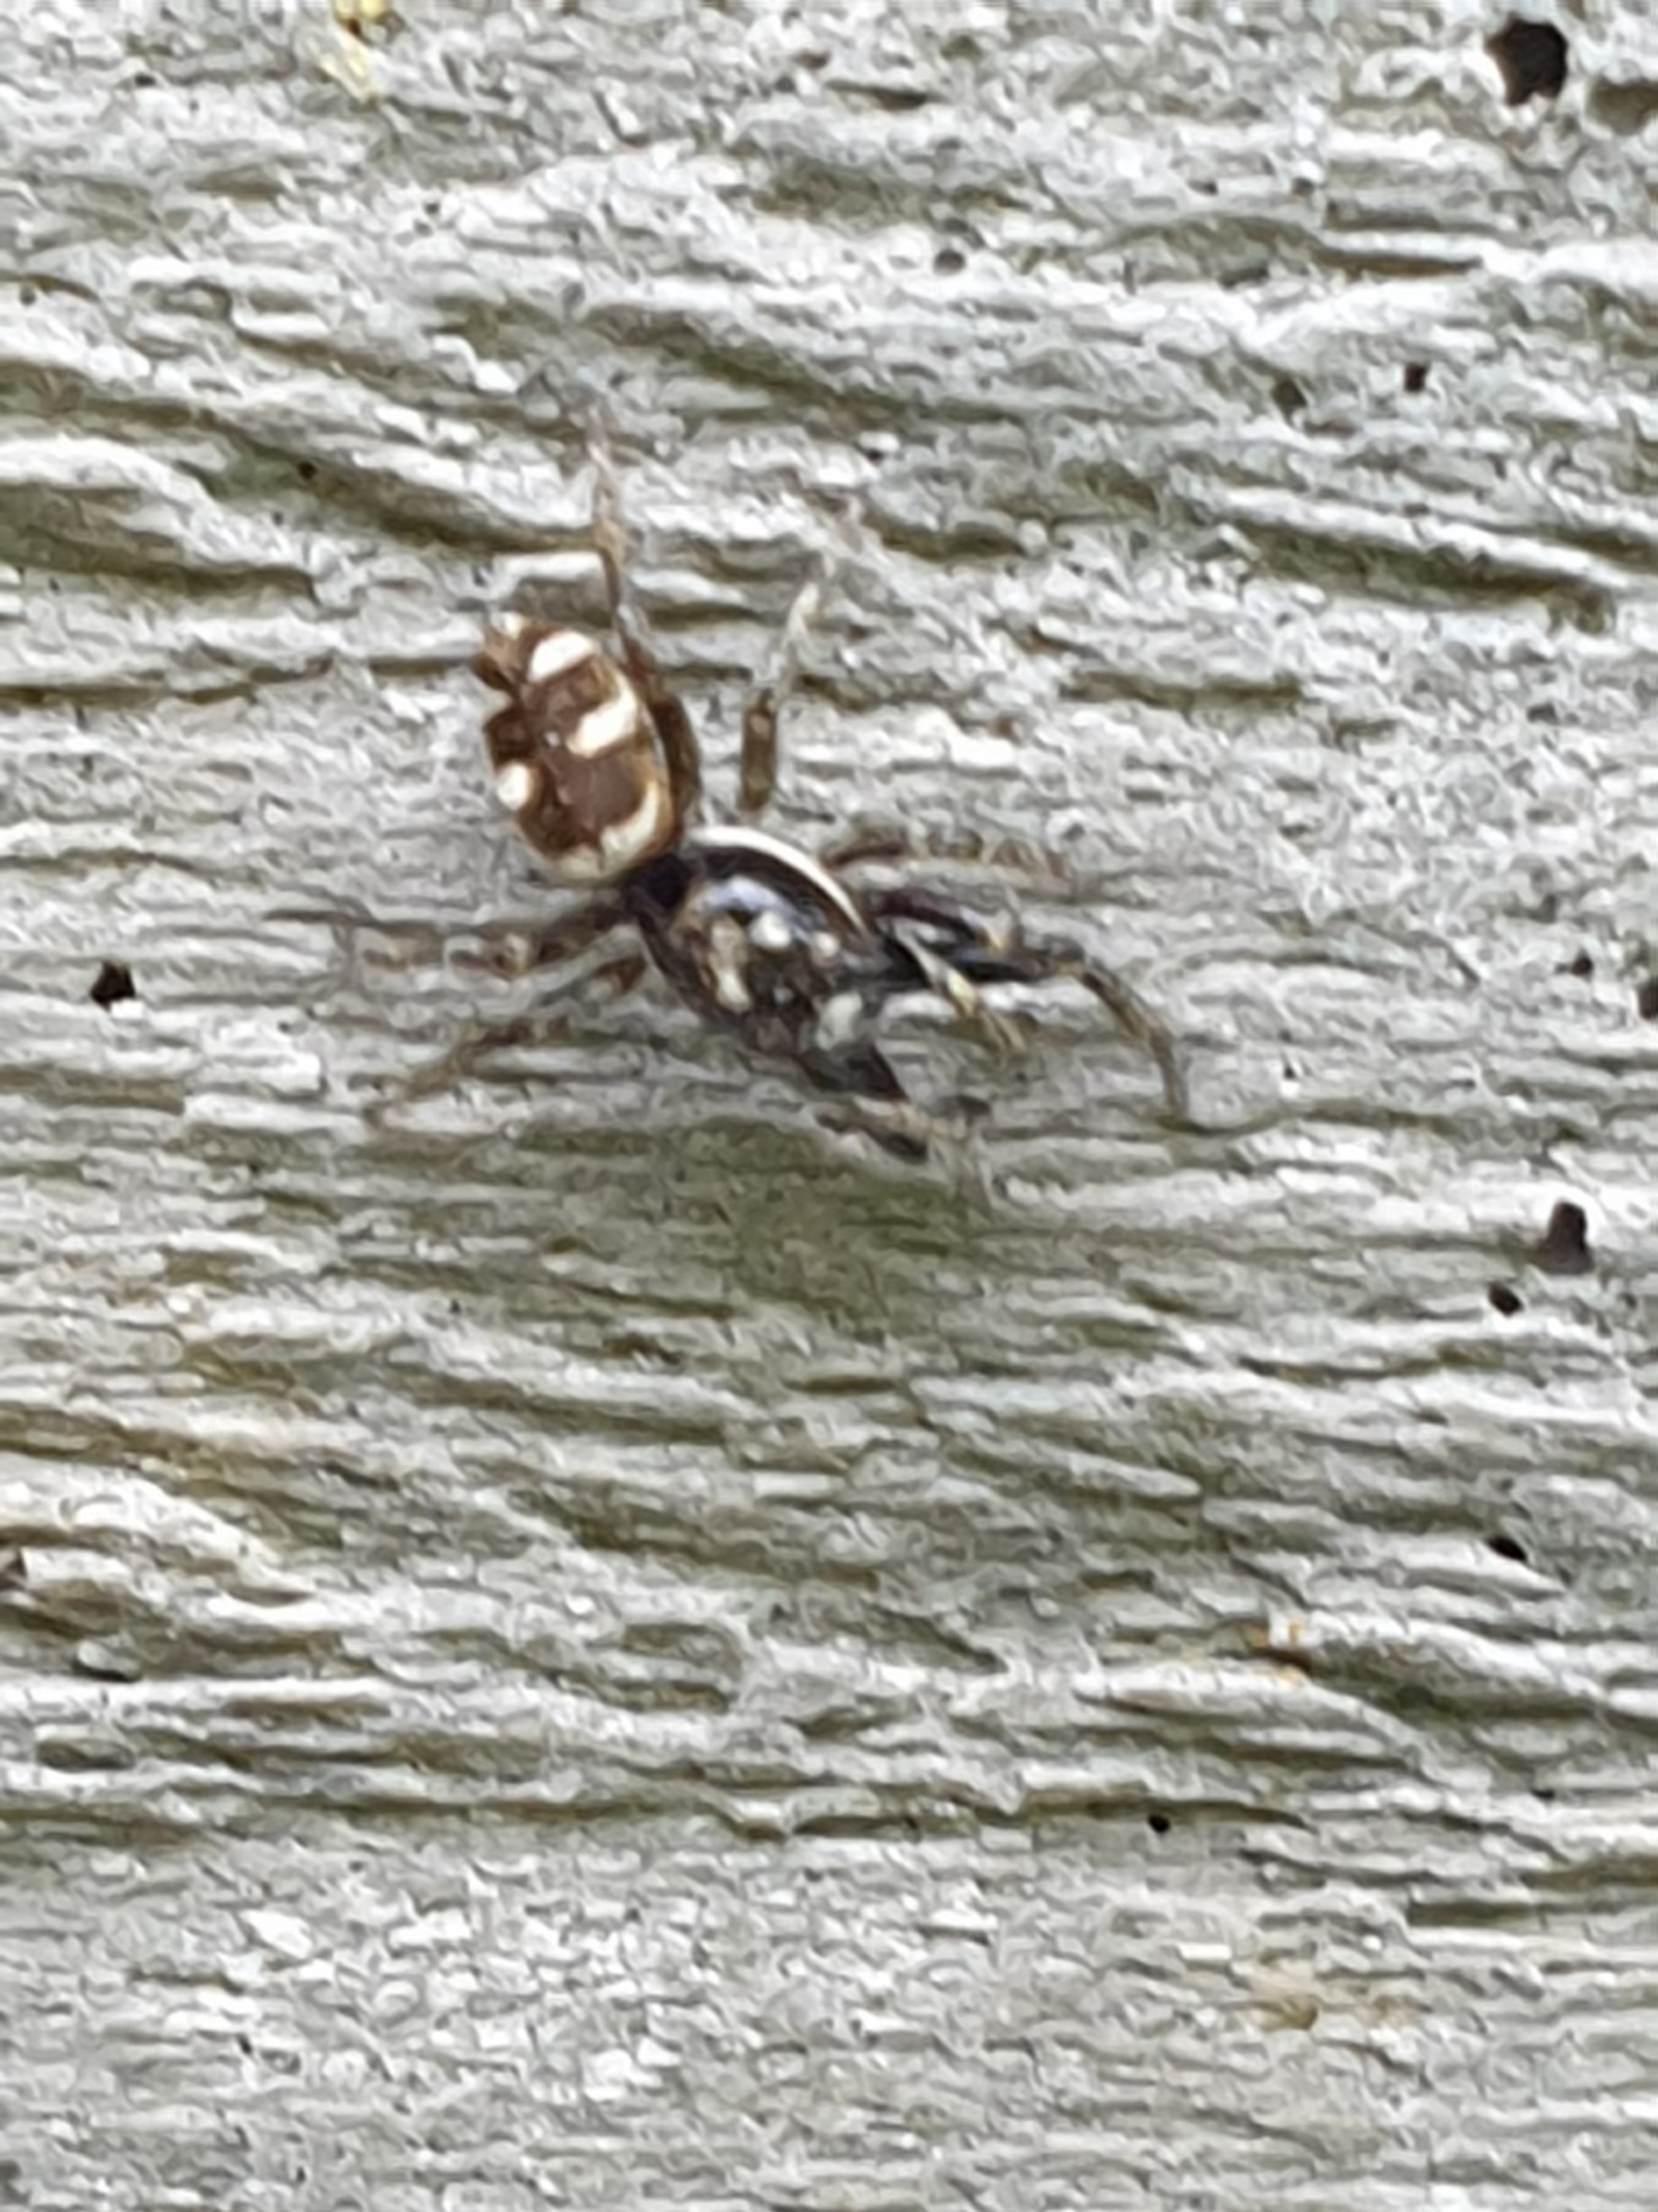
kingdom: Animalia
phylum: Arthropoda
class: Arachnida
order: Araneae
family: Salticidae
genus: Salticus
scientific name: Salticus scenicus
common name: Almindelig zebraedderkop
